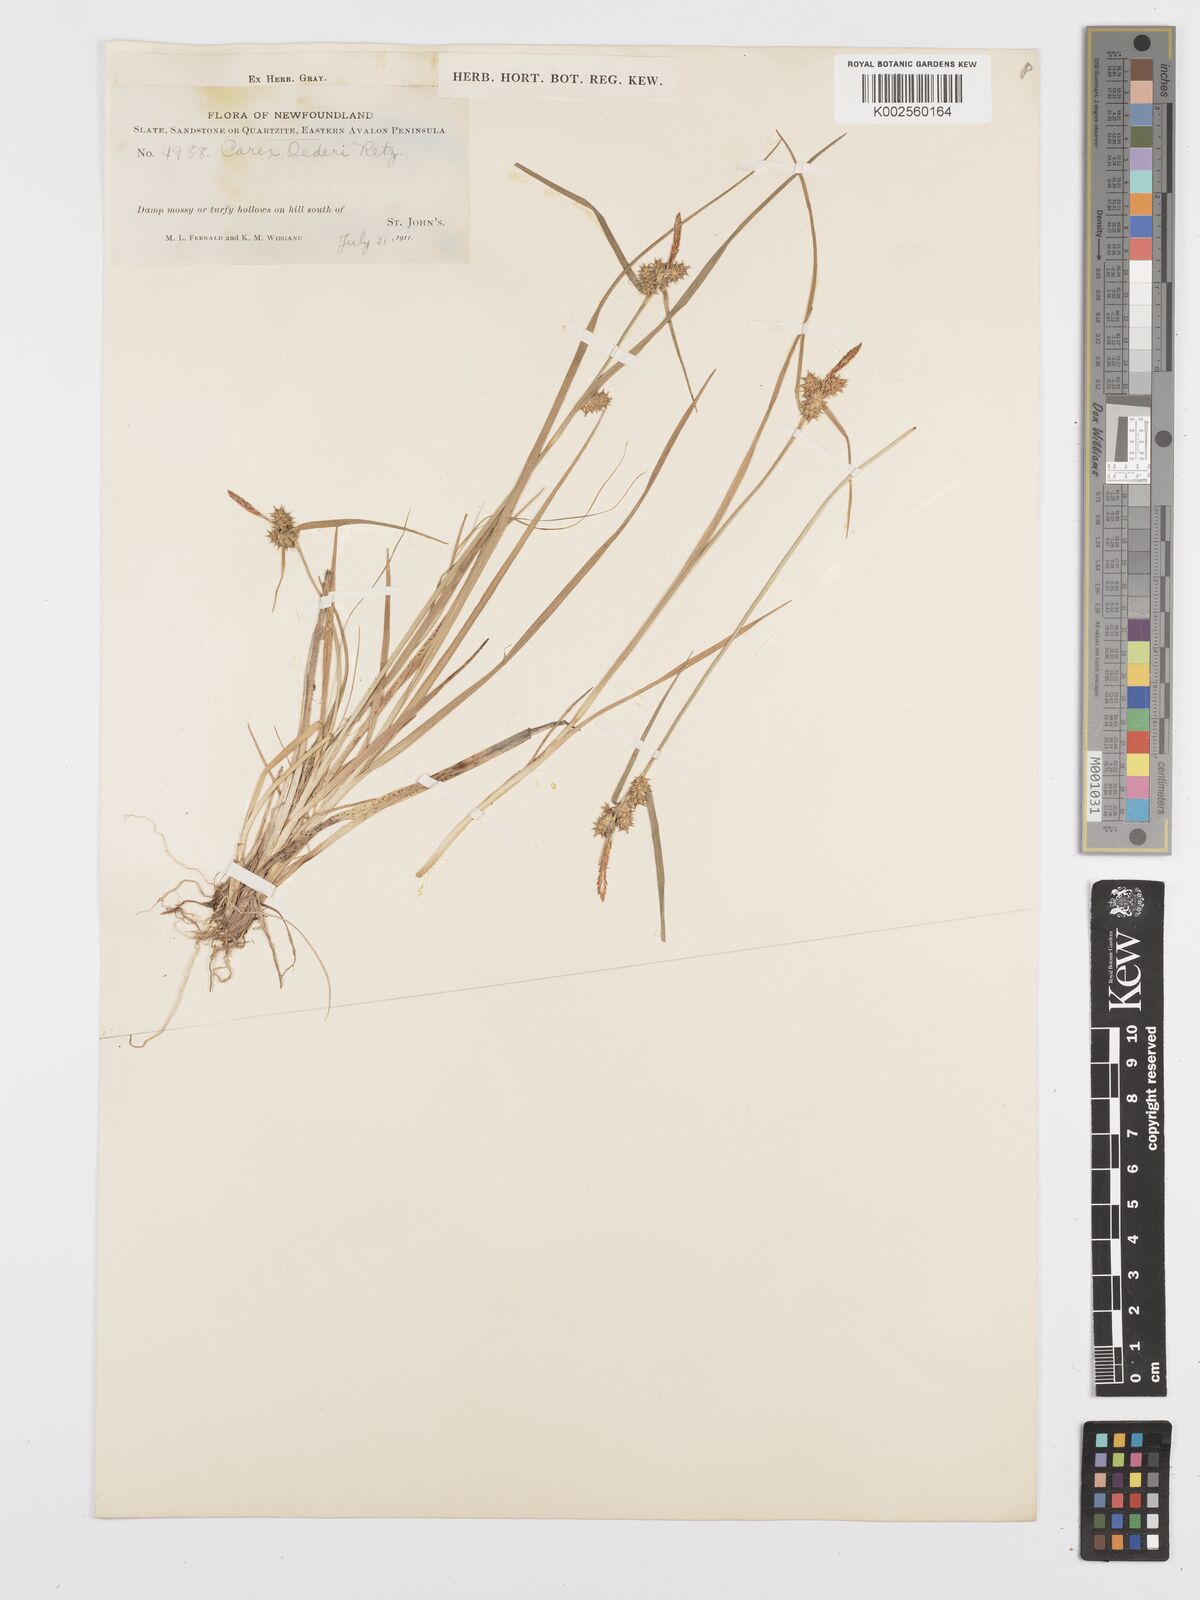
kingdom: Plantae
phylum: Tracheophyta
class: Liliopsida
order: Poales
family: Cyperaceae
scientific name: Cyperaceae
